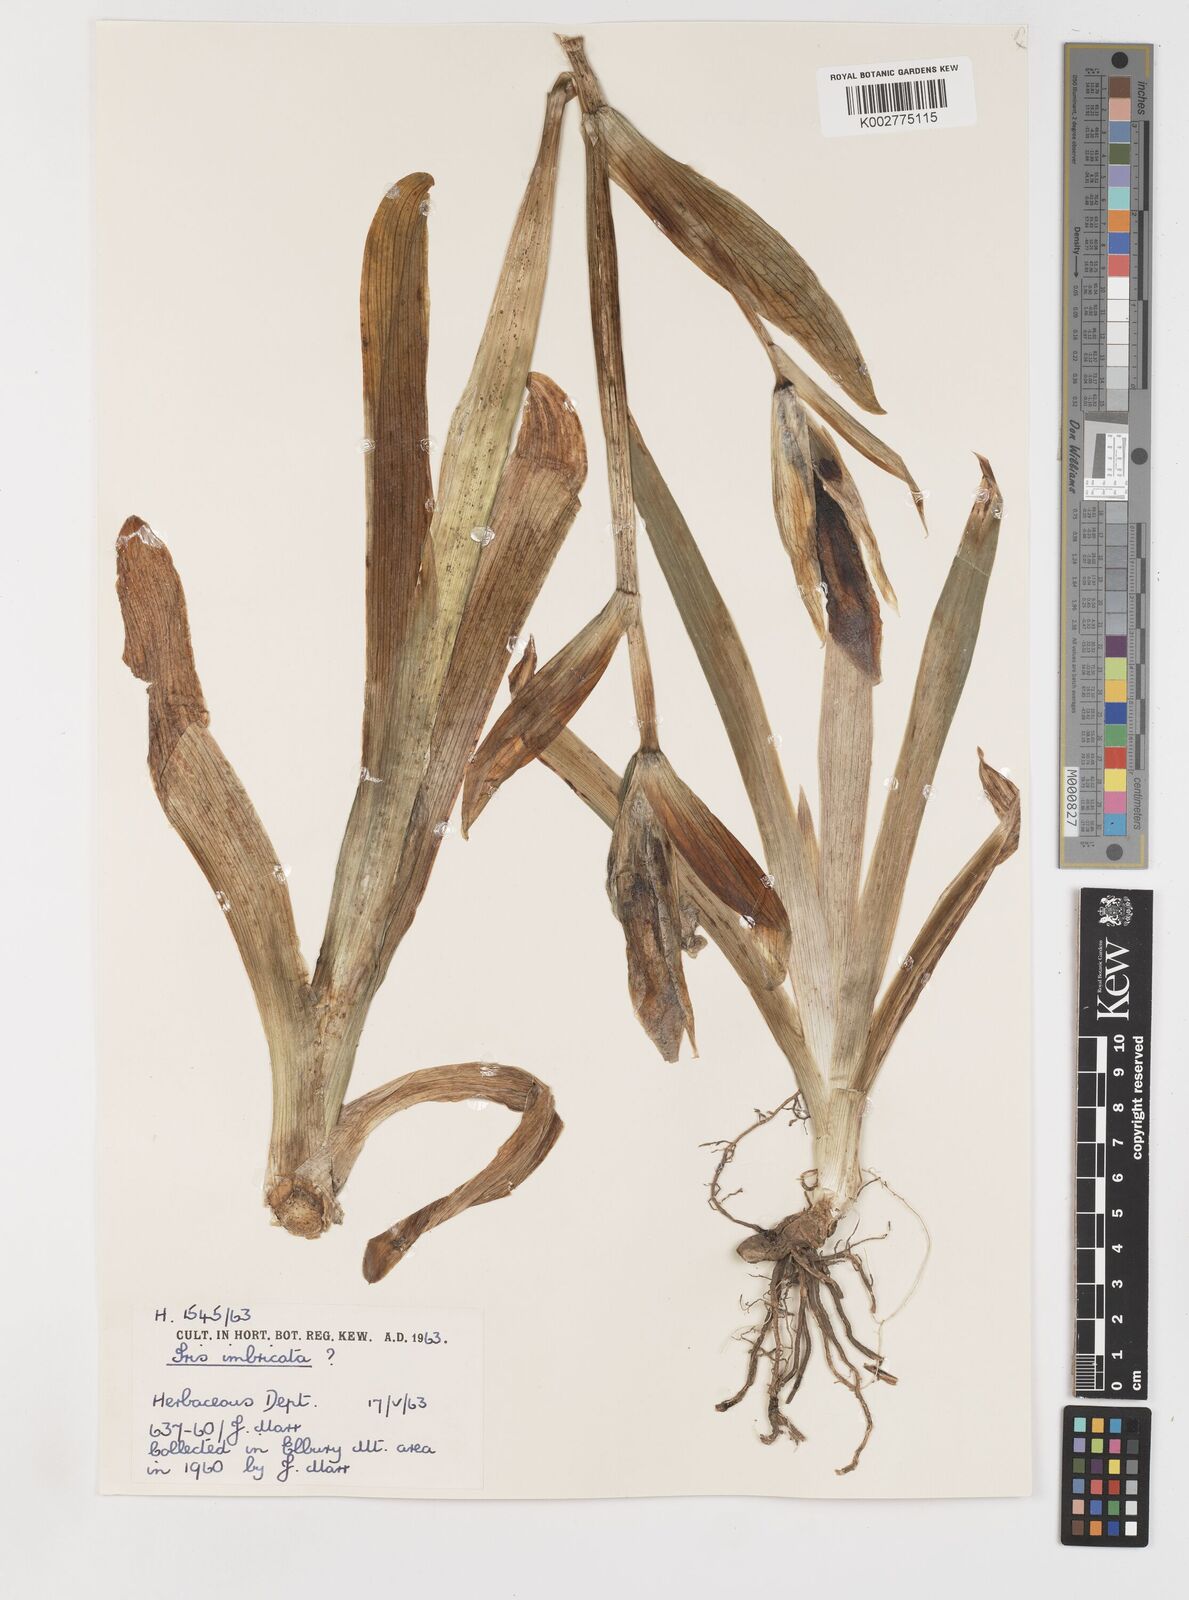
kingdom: Plantae
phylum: Tracheophyta
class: Liliopsida
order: Asparagales
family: Iridaceae
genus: Iris
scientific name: Iris imbricata
